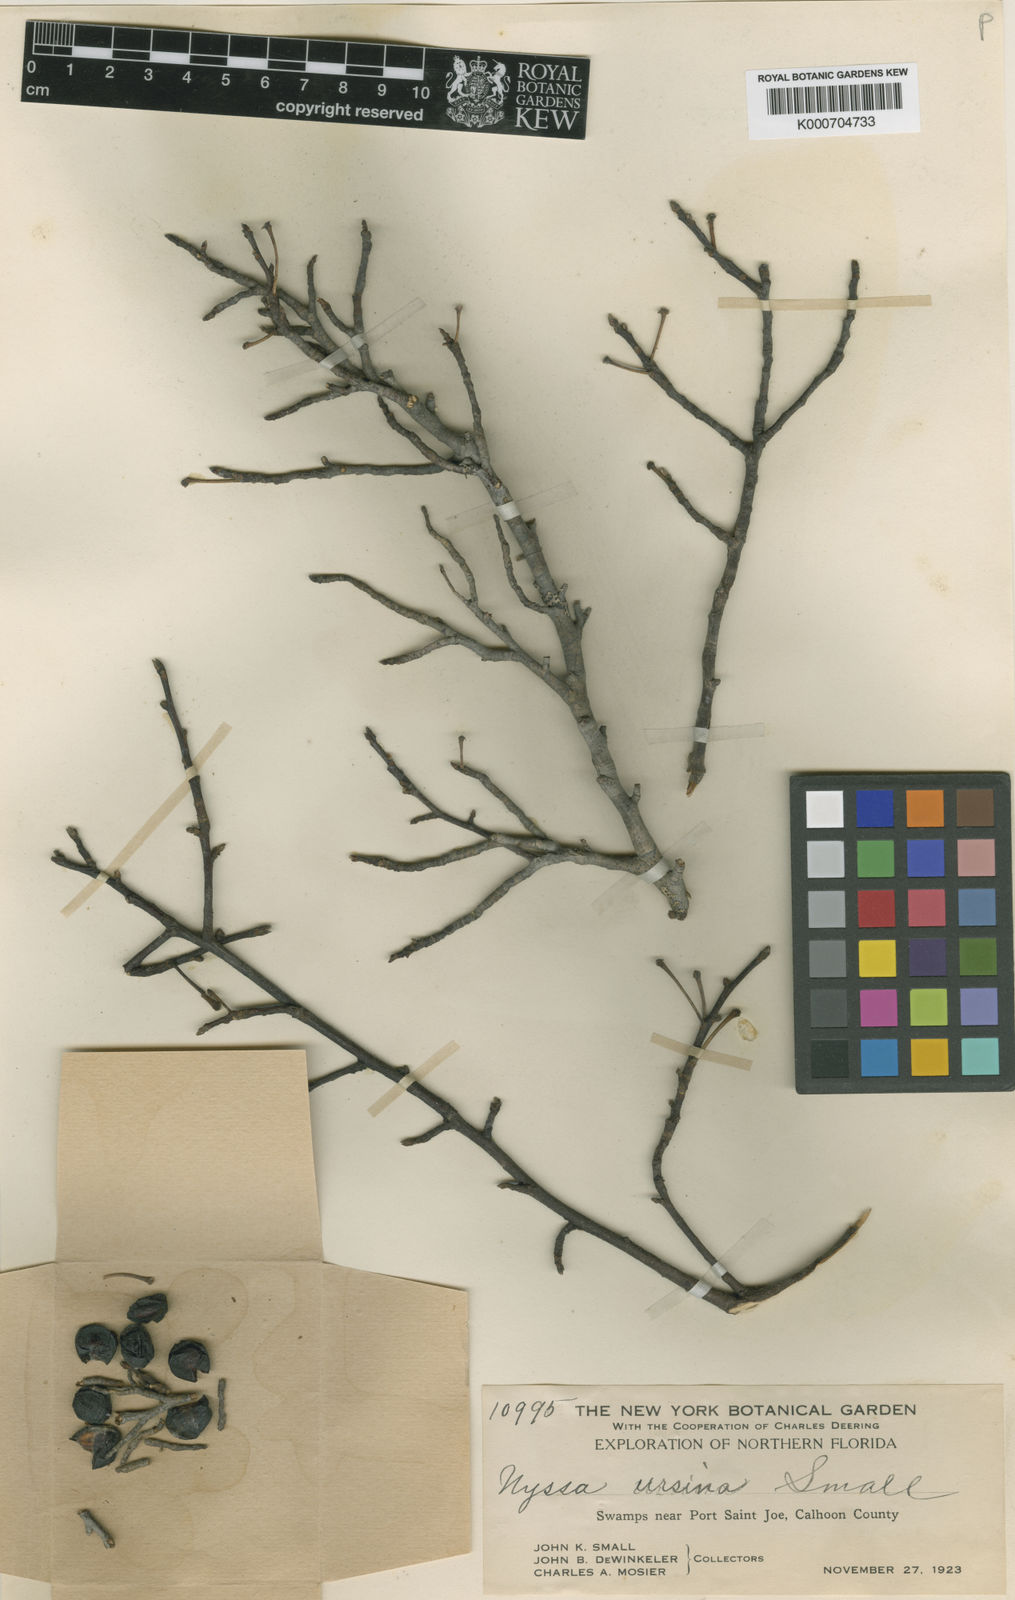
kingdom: Plantae
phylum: Tracheophyta
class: Magnoliopsida
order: Cornales
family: Nyssaceae
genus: Nyssa
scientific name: Nyssa biflora
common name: Swamp blackgum
